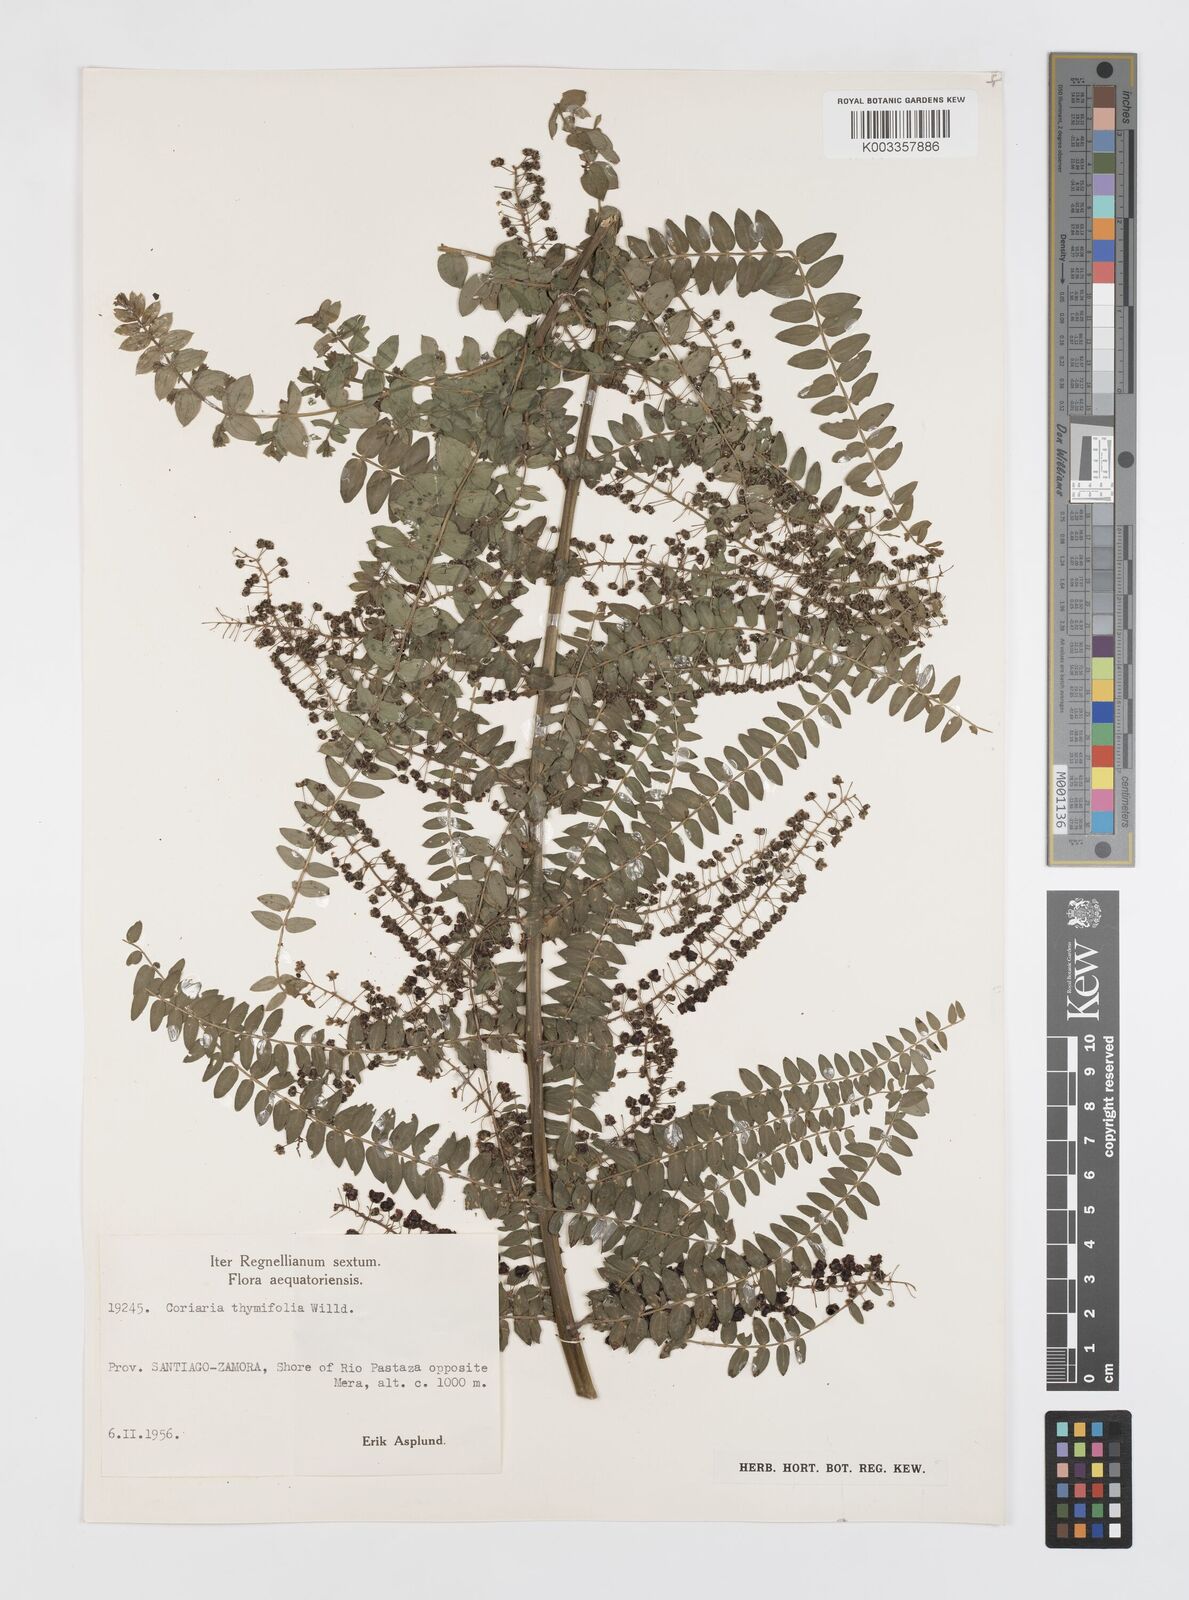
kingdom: Plantae
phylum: Tracheophyta
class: Magnoliopsida
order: Cucurbitales
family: Coriariaceae
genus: Coriaria
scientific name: Coriaria microphylla
